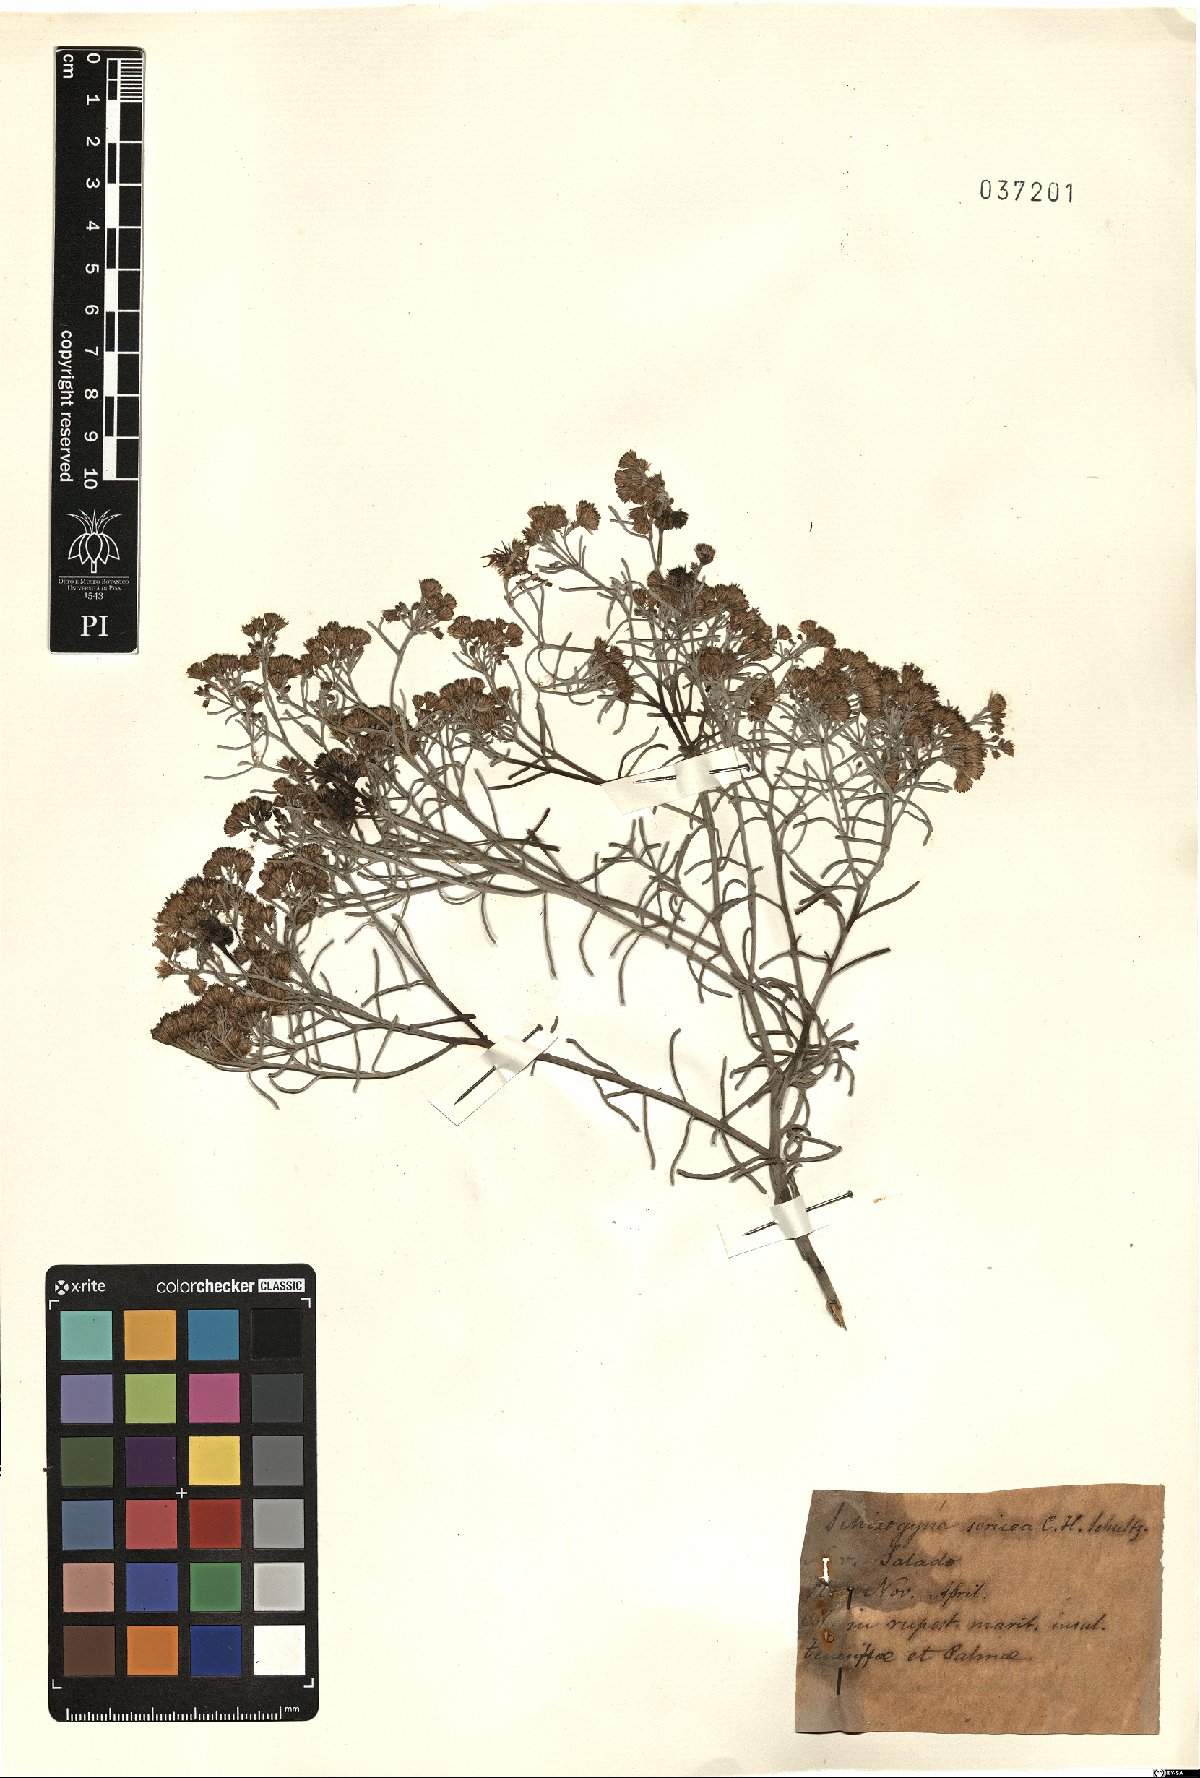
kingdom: Plantae
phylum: Tracheophyta
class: Magnoliopsida
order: Asterales
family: Asteraceae
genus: Schizogyne
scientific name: Schizogyne sericea
